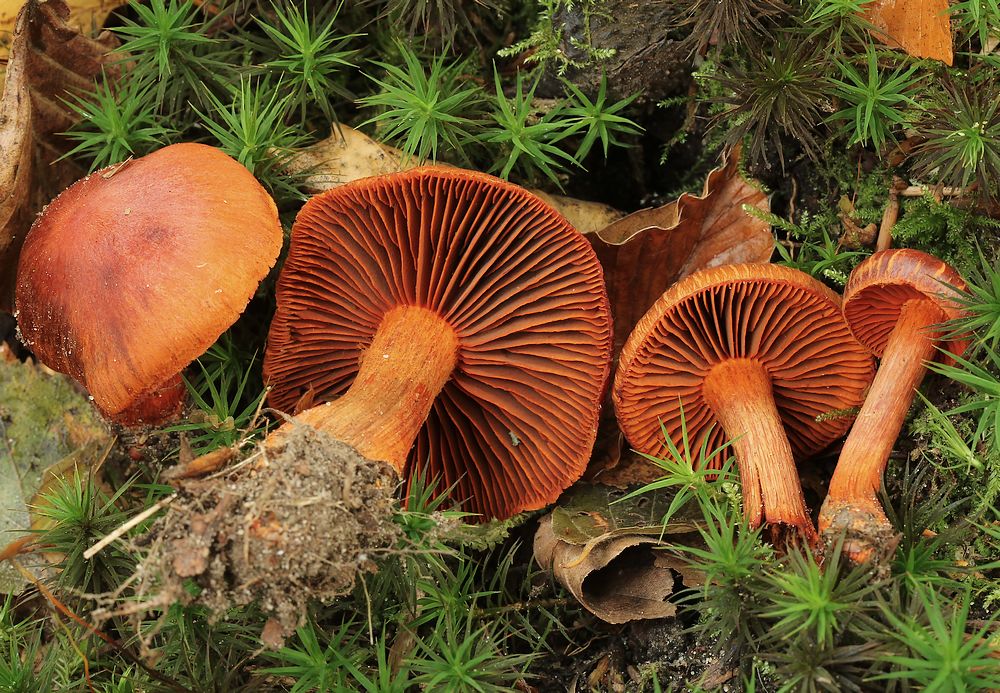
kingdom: Fungi
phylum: Basidiomycota
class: Agaricomycetes
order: Agaricales
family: Cortinariaceae
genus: Cortinarius
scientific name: Cortinarius cinnabarinus
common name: cinnober-slørhat
